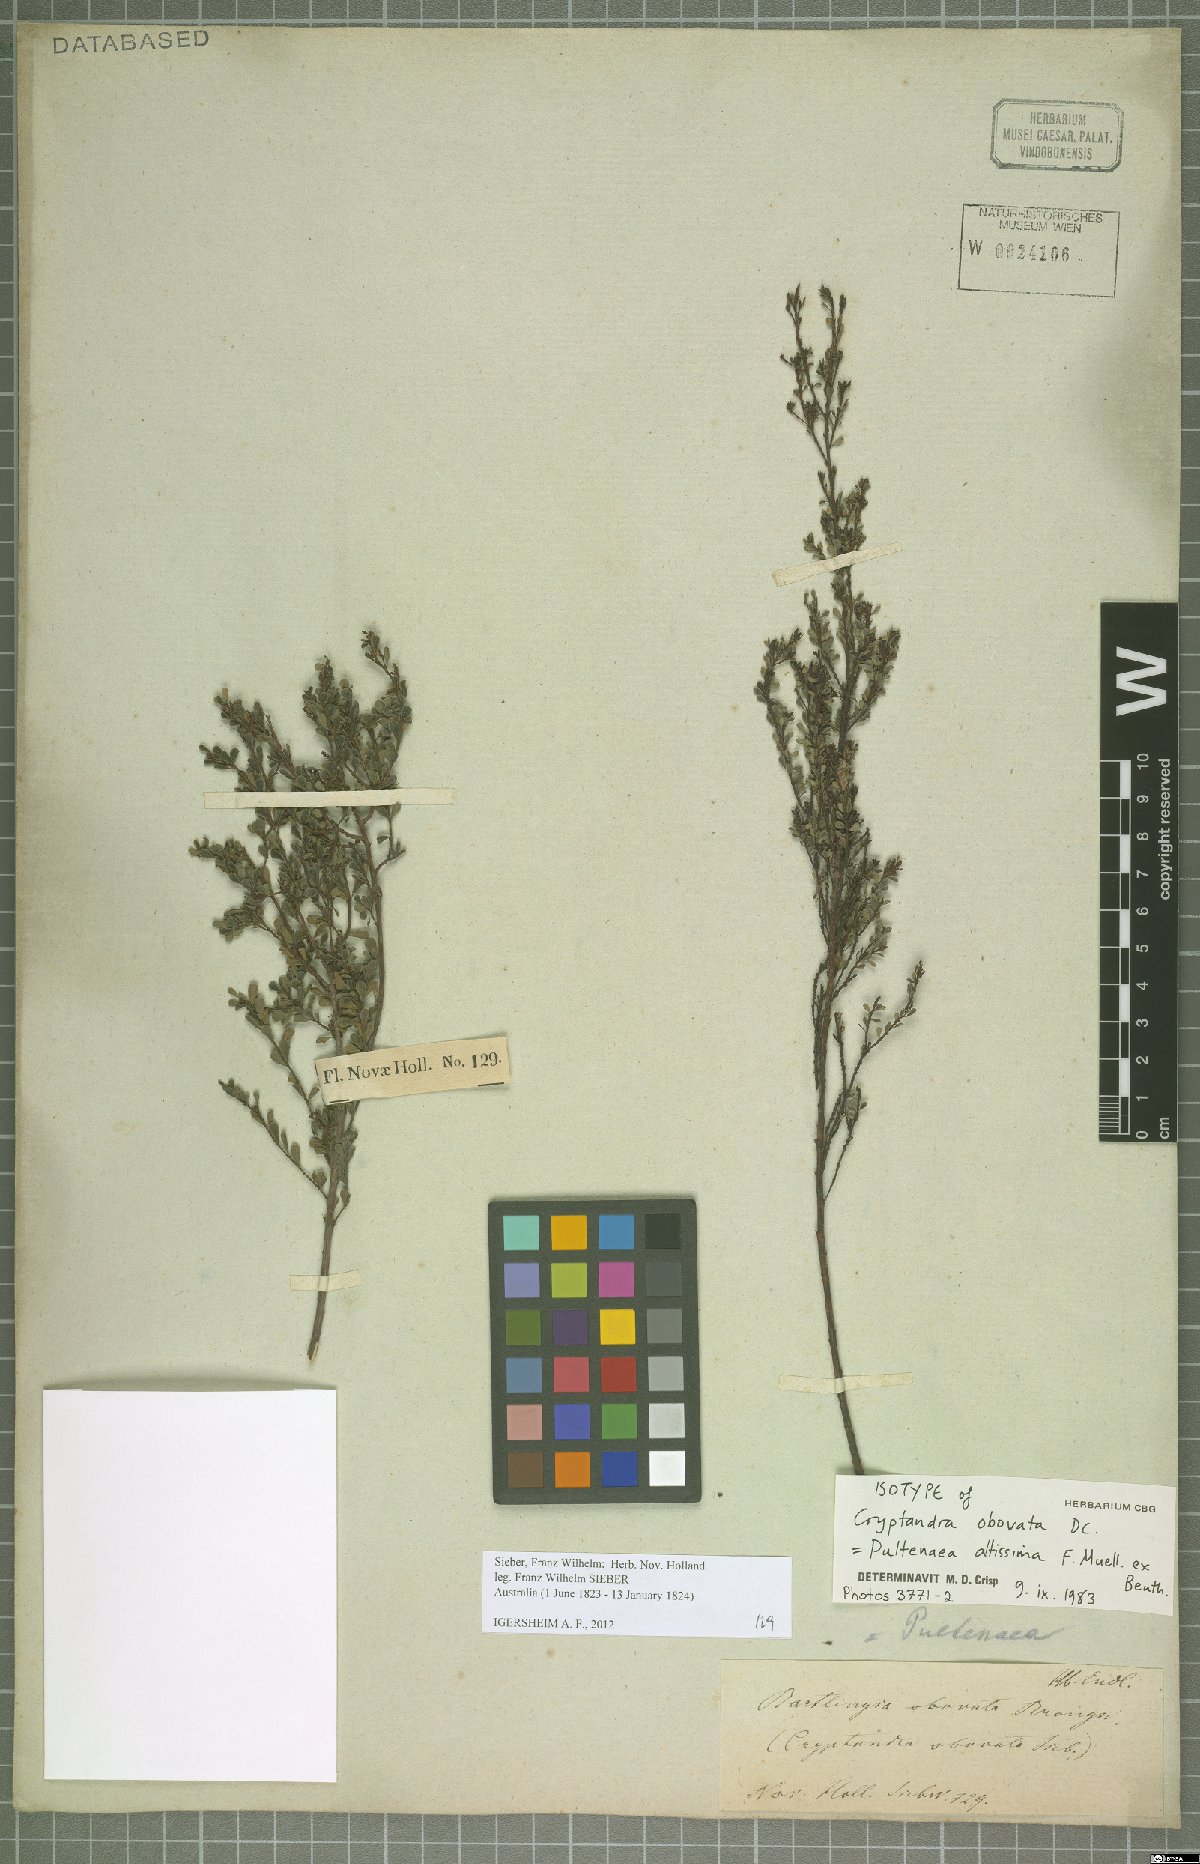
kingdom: Plantae
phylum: Tracheophyta
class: Magnoliopsida
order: Fabales
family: Fabaceae
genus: Pultenaea
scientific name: Pultenaea altissima
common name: Tall bush-pea
